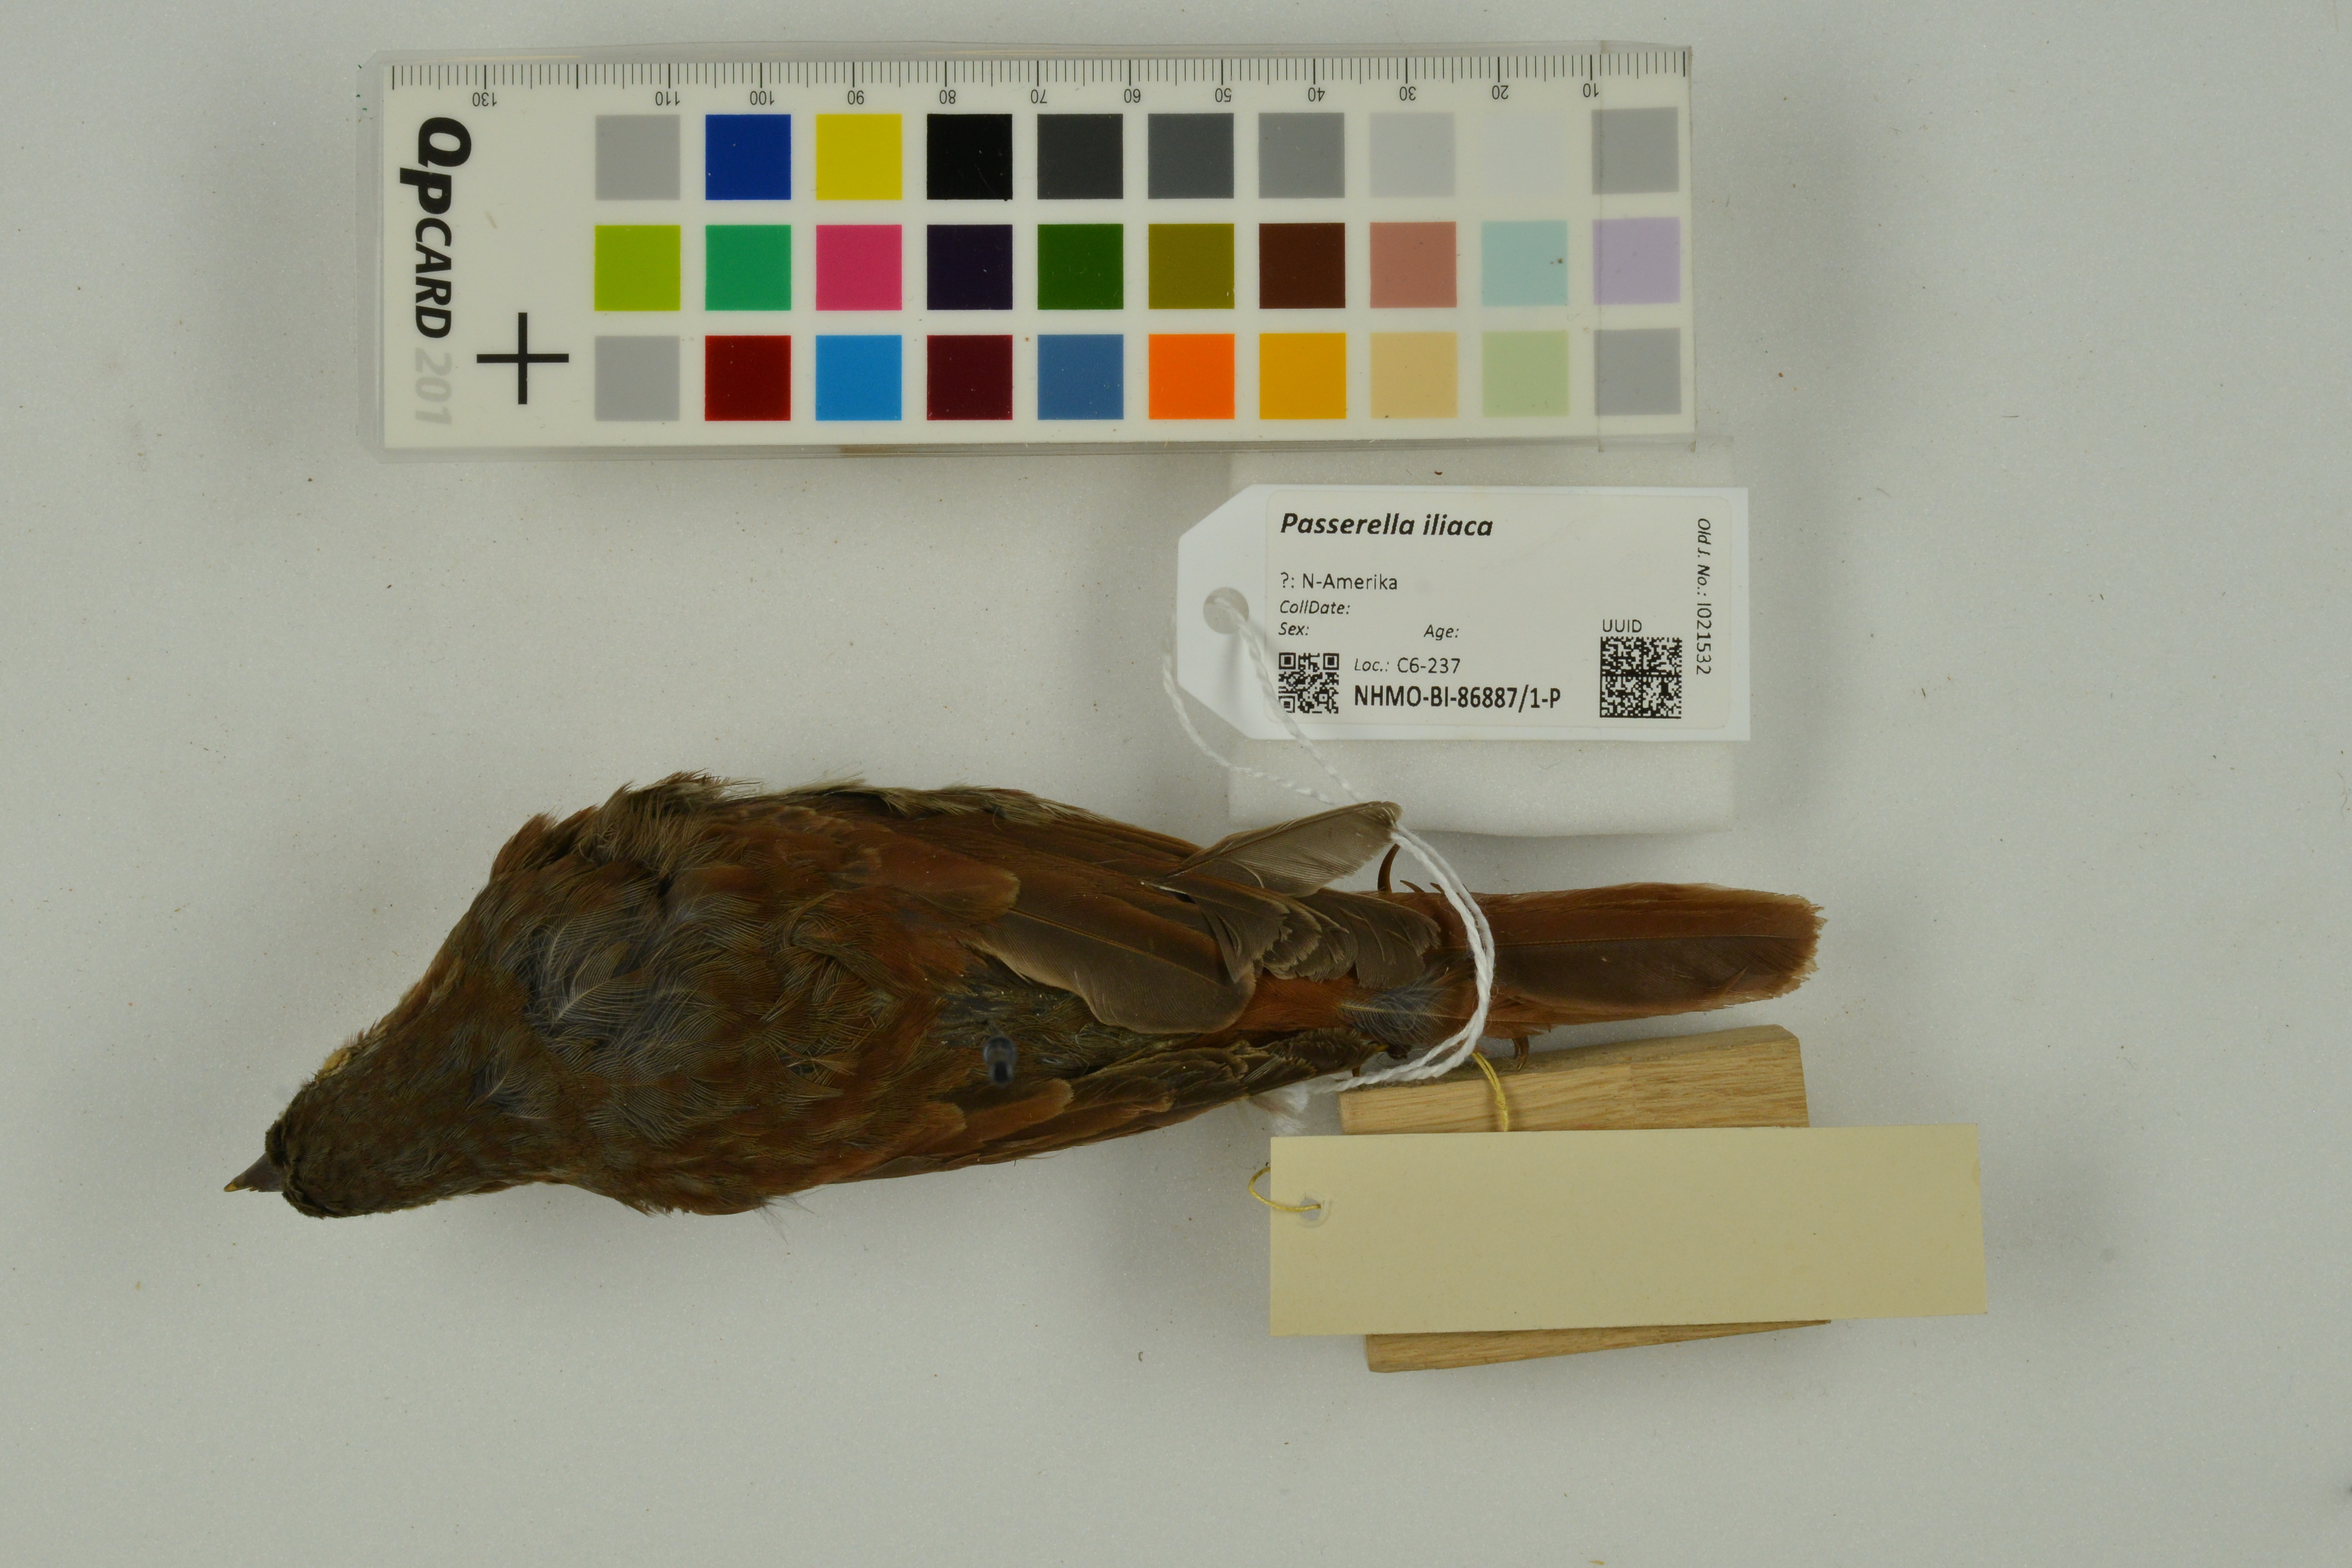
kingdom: Animalia
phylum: Chordata
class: Aves
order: Passeriformes
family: Passerellidae
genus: Passerella
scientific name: Passerella iliaca
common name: Fox sparrow
